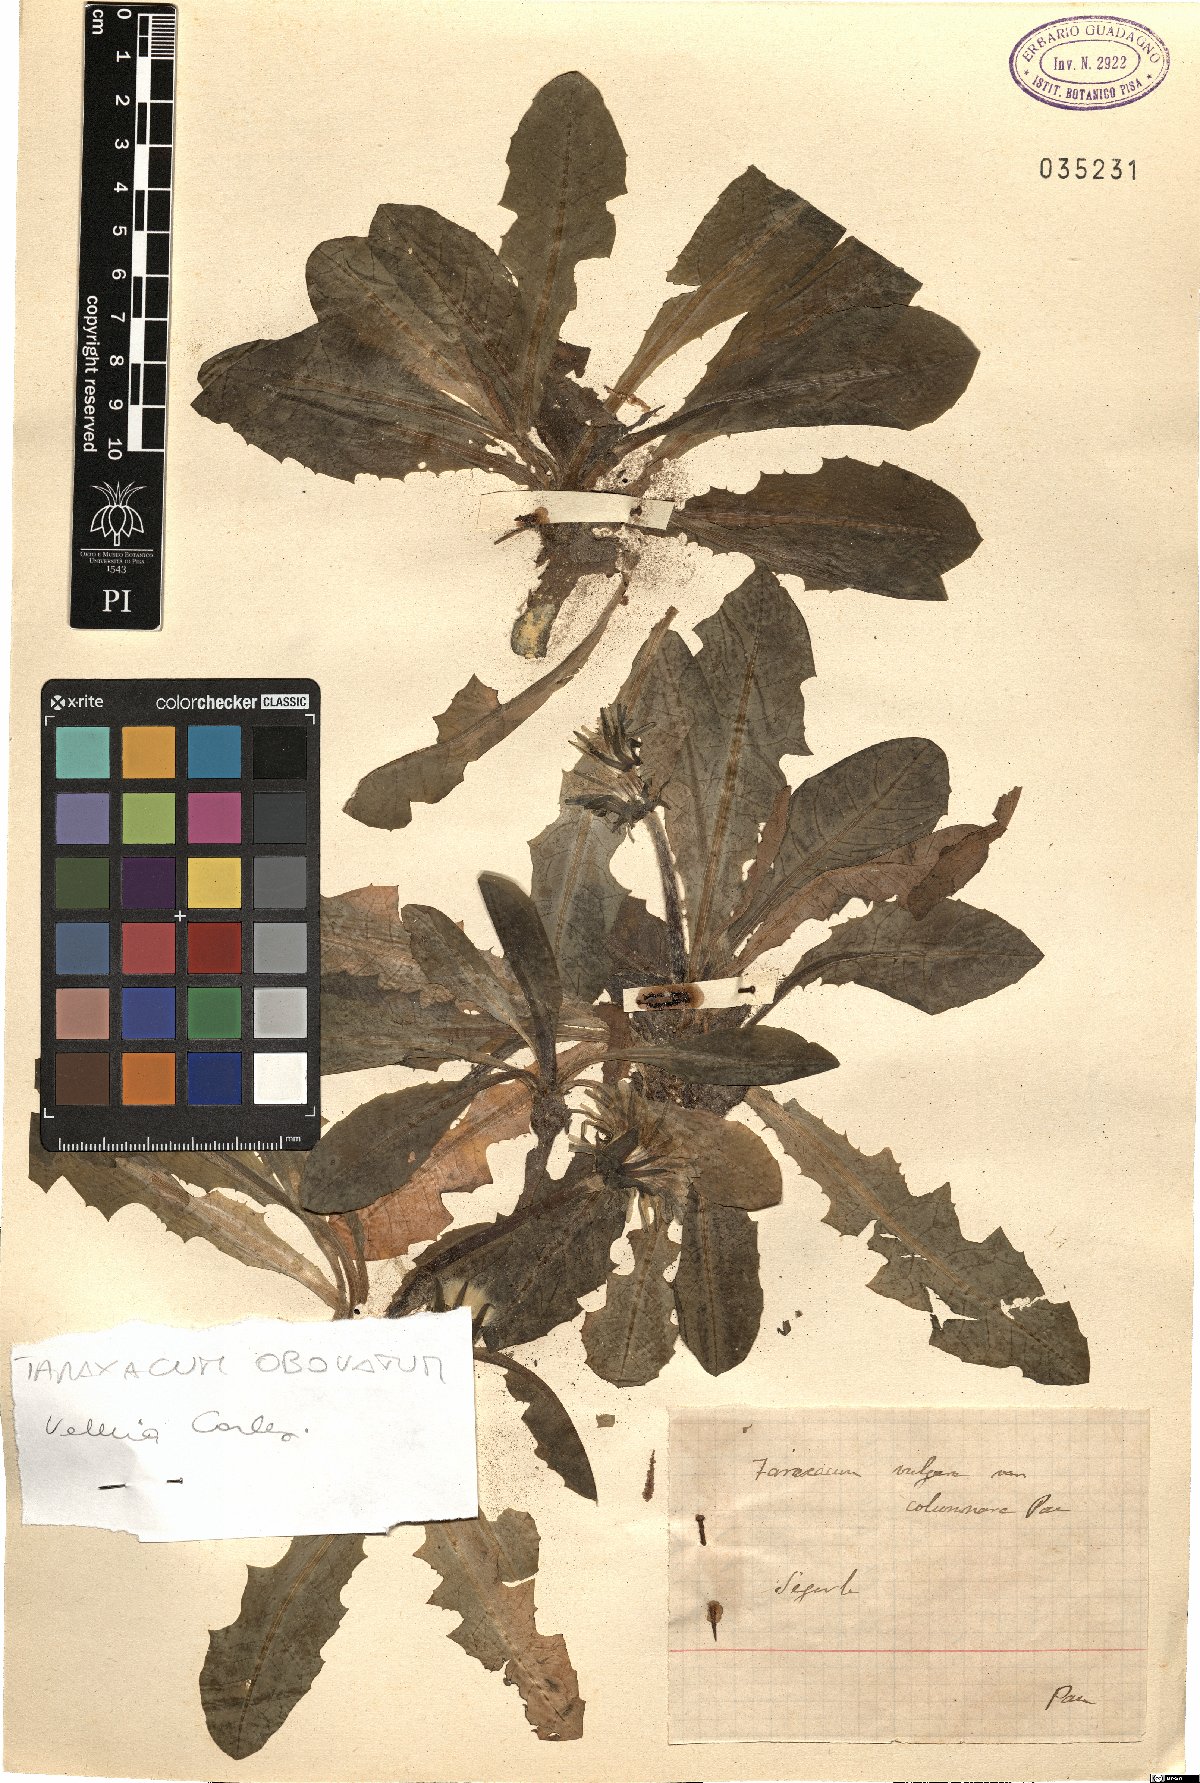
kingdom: Plantae
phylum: Tracheophyta
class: Magnoliopsida
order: Asterales
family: Asteraceae
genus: Taraxacum
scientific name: Taraxacum obovatum
